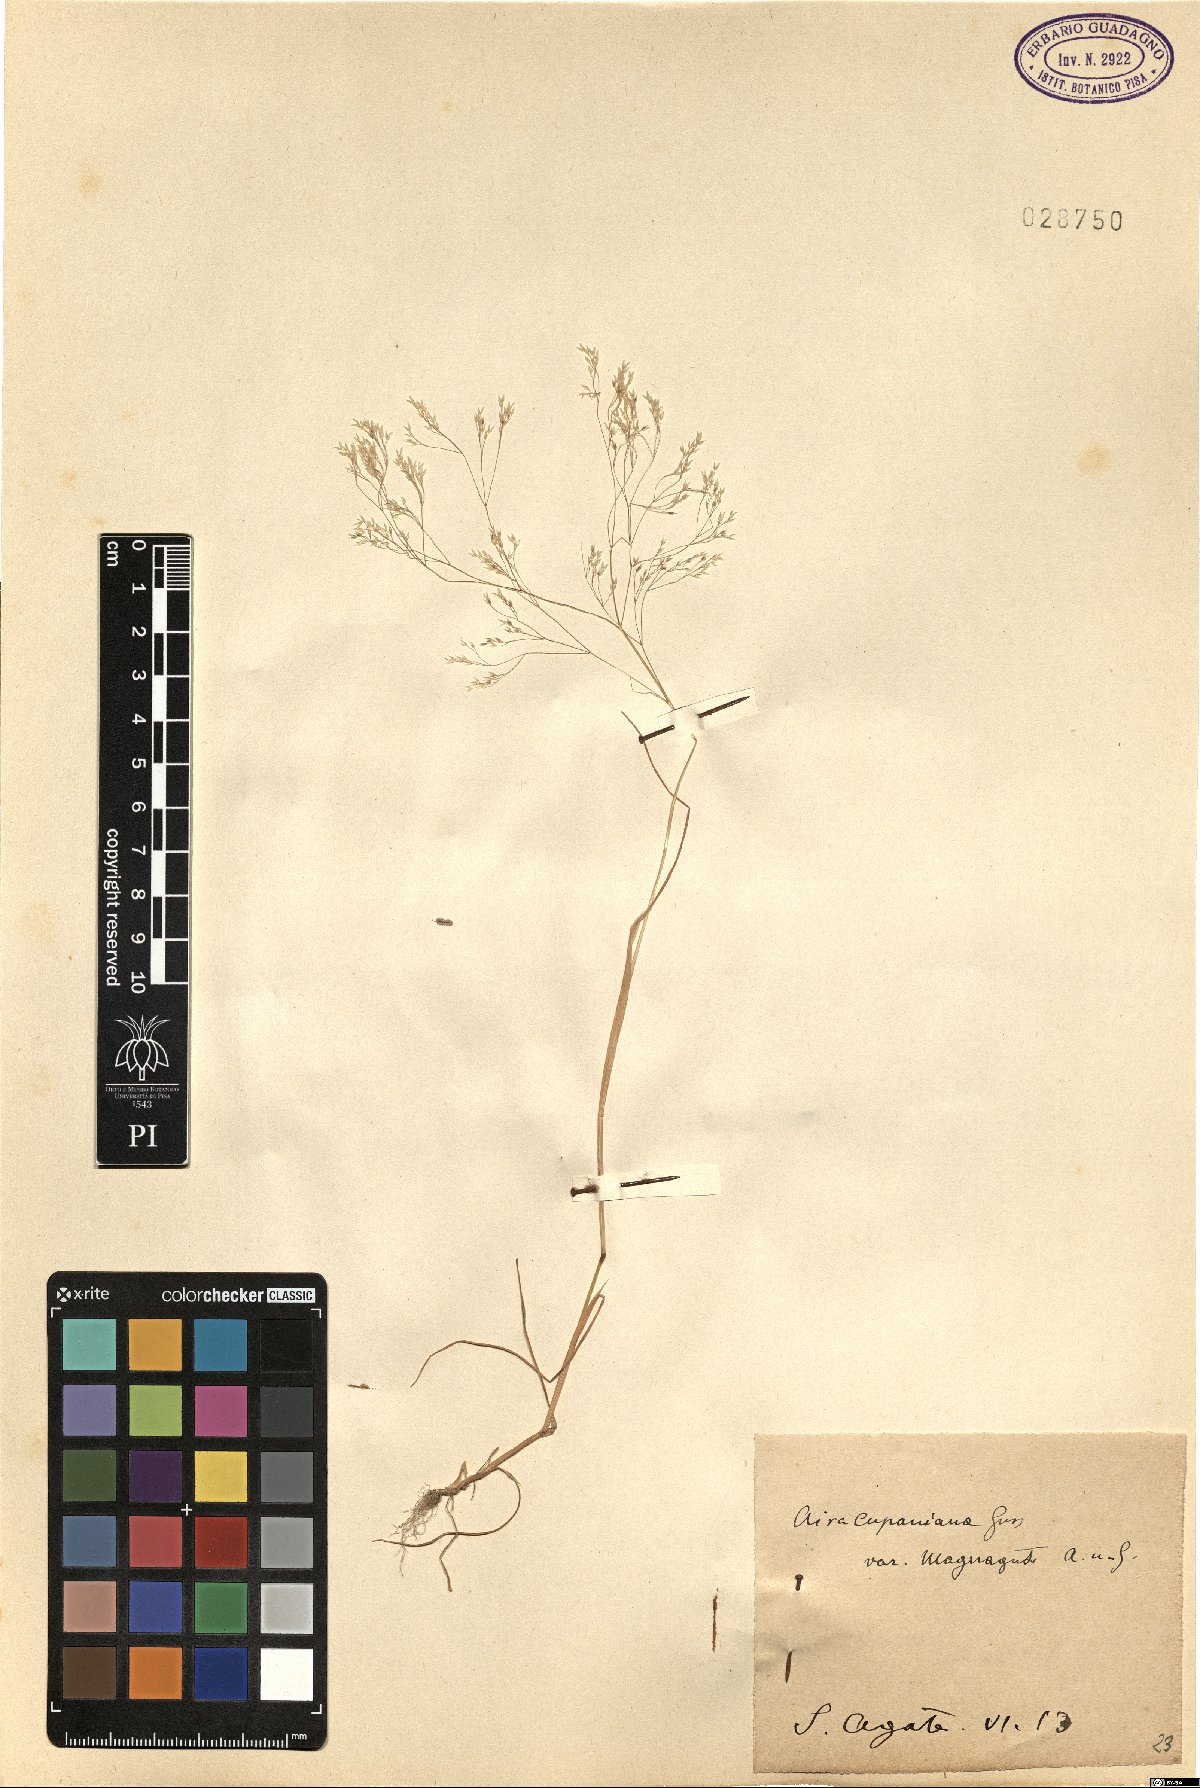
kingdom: Plantae
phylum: Tracheophyta
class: Liliopsida
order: Poales
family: Poaceae
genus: Aira
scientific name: Aira cupaniana
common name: Silver hairgrass
